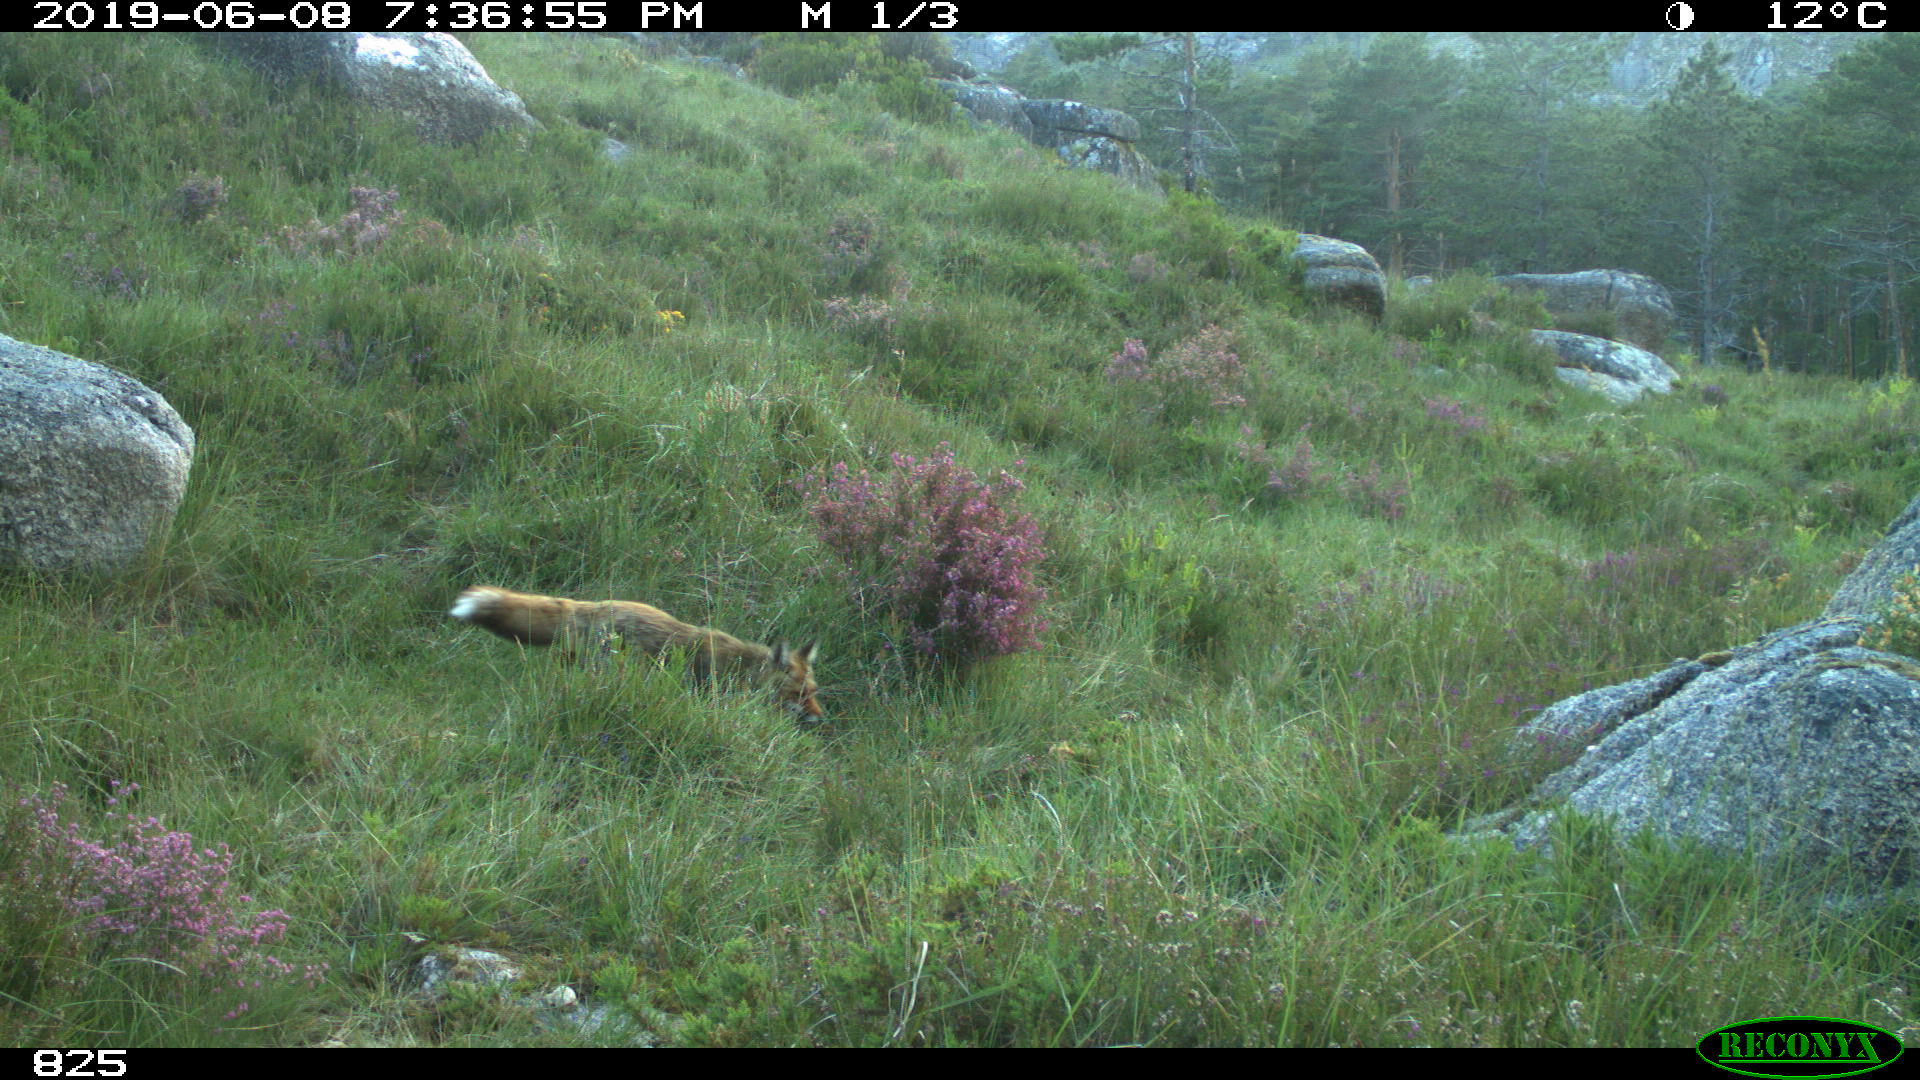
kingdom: Animalia
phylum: Chordata
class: Mammalia
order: Carnivora
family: Canidae
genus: Vulpes
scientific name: Vulpes vulpes
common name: Red fox
